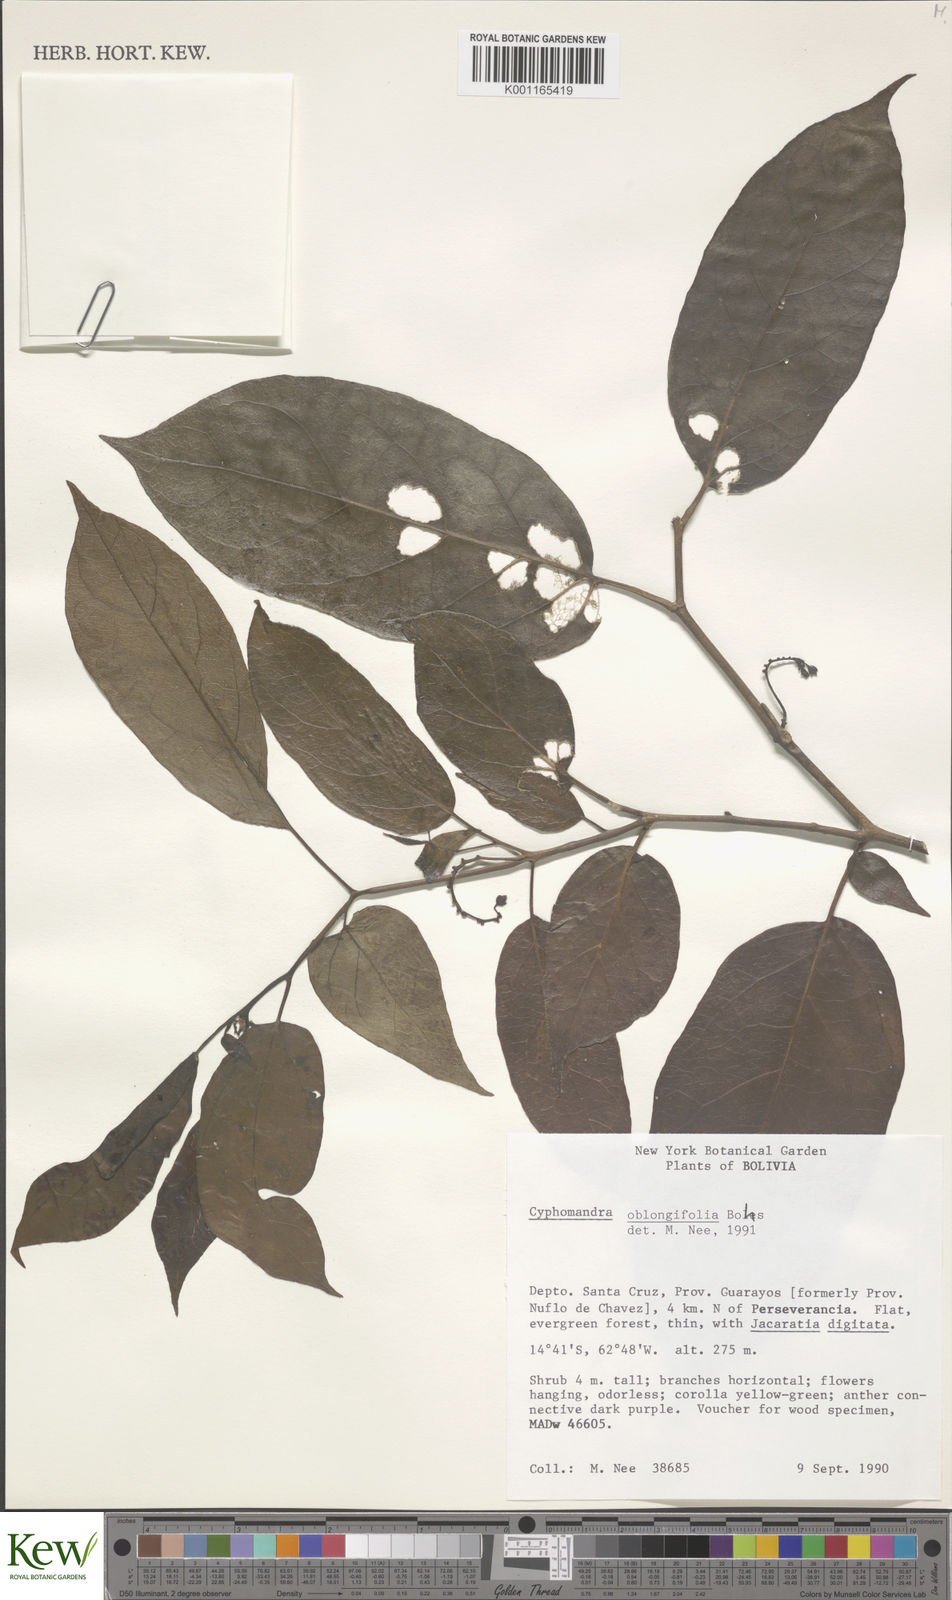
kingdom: Plantae
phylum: Tracheophyta
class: Magnoliopsida
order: Solanales
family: Solanaceae
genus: Solanum
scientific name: Solanum proteanthum
